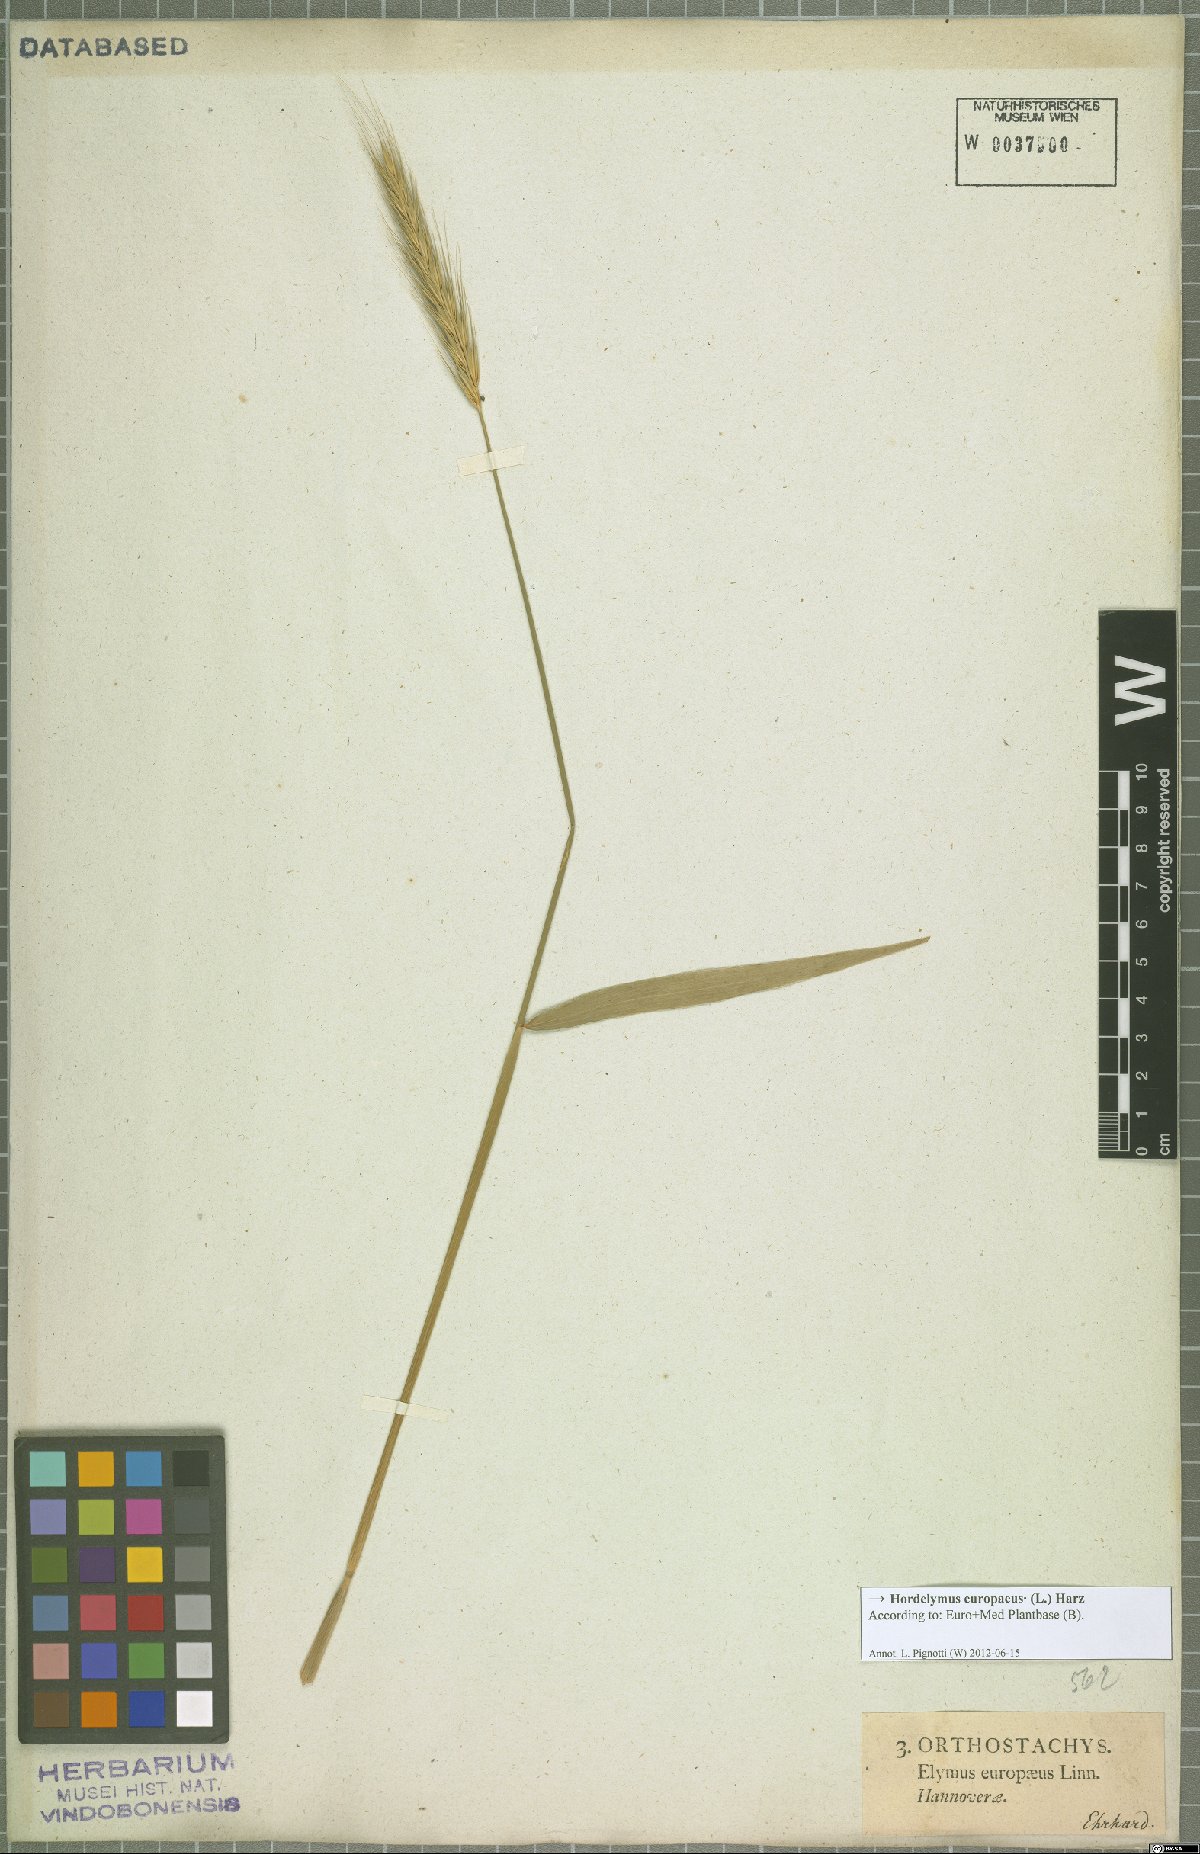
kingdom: Plantae
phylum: Tracheophyta
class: Liliopsida
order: Poales
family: Poaceae
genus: Hordelymus
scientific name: Hordelymus europaeus
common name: Wood-barley
